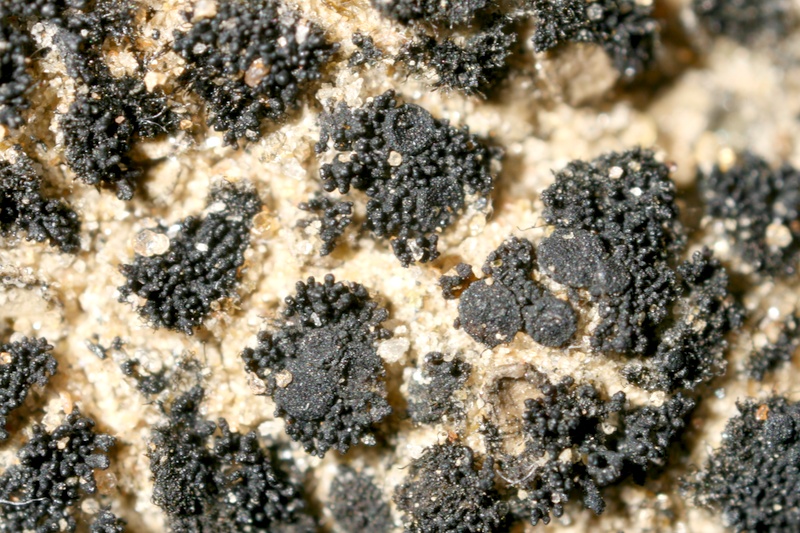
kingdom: Fungi
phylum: Ascomycota
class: Lichinomycetes
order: Lichinales
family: Lichinaceae
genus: Peccania
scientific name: Peccania subnigra
